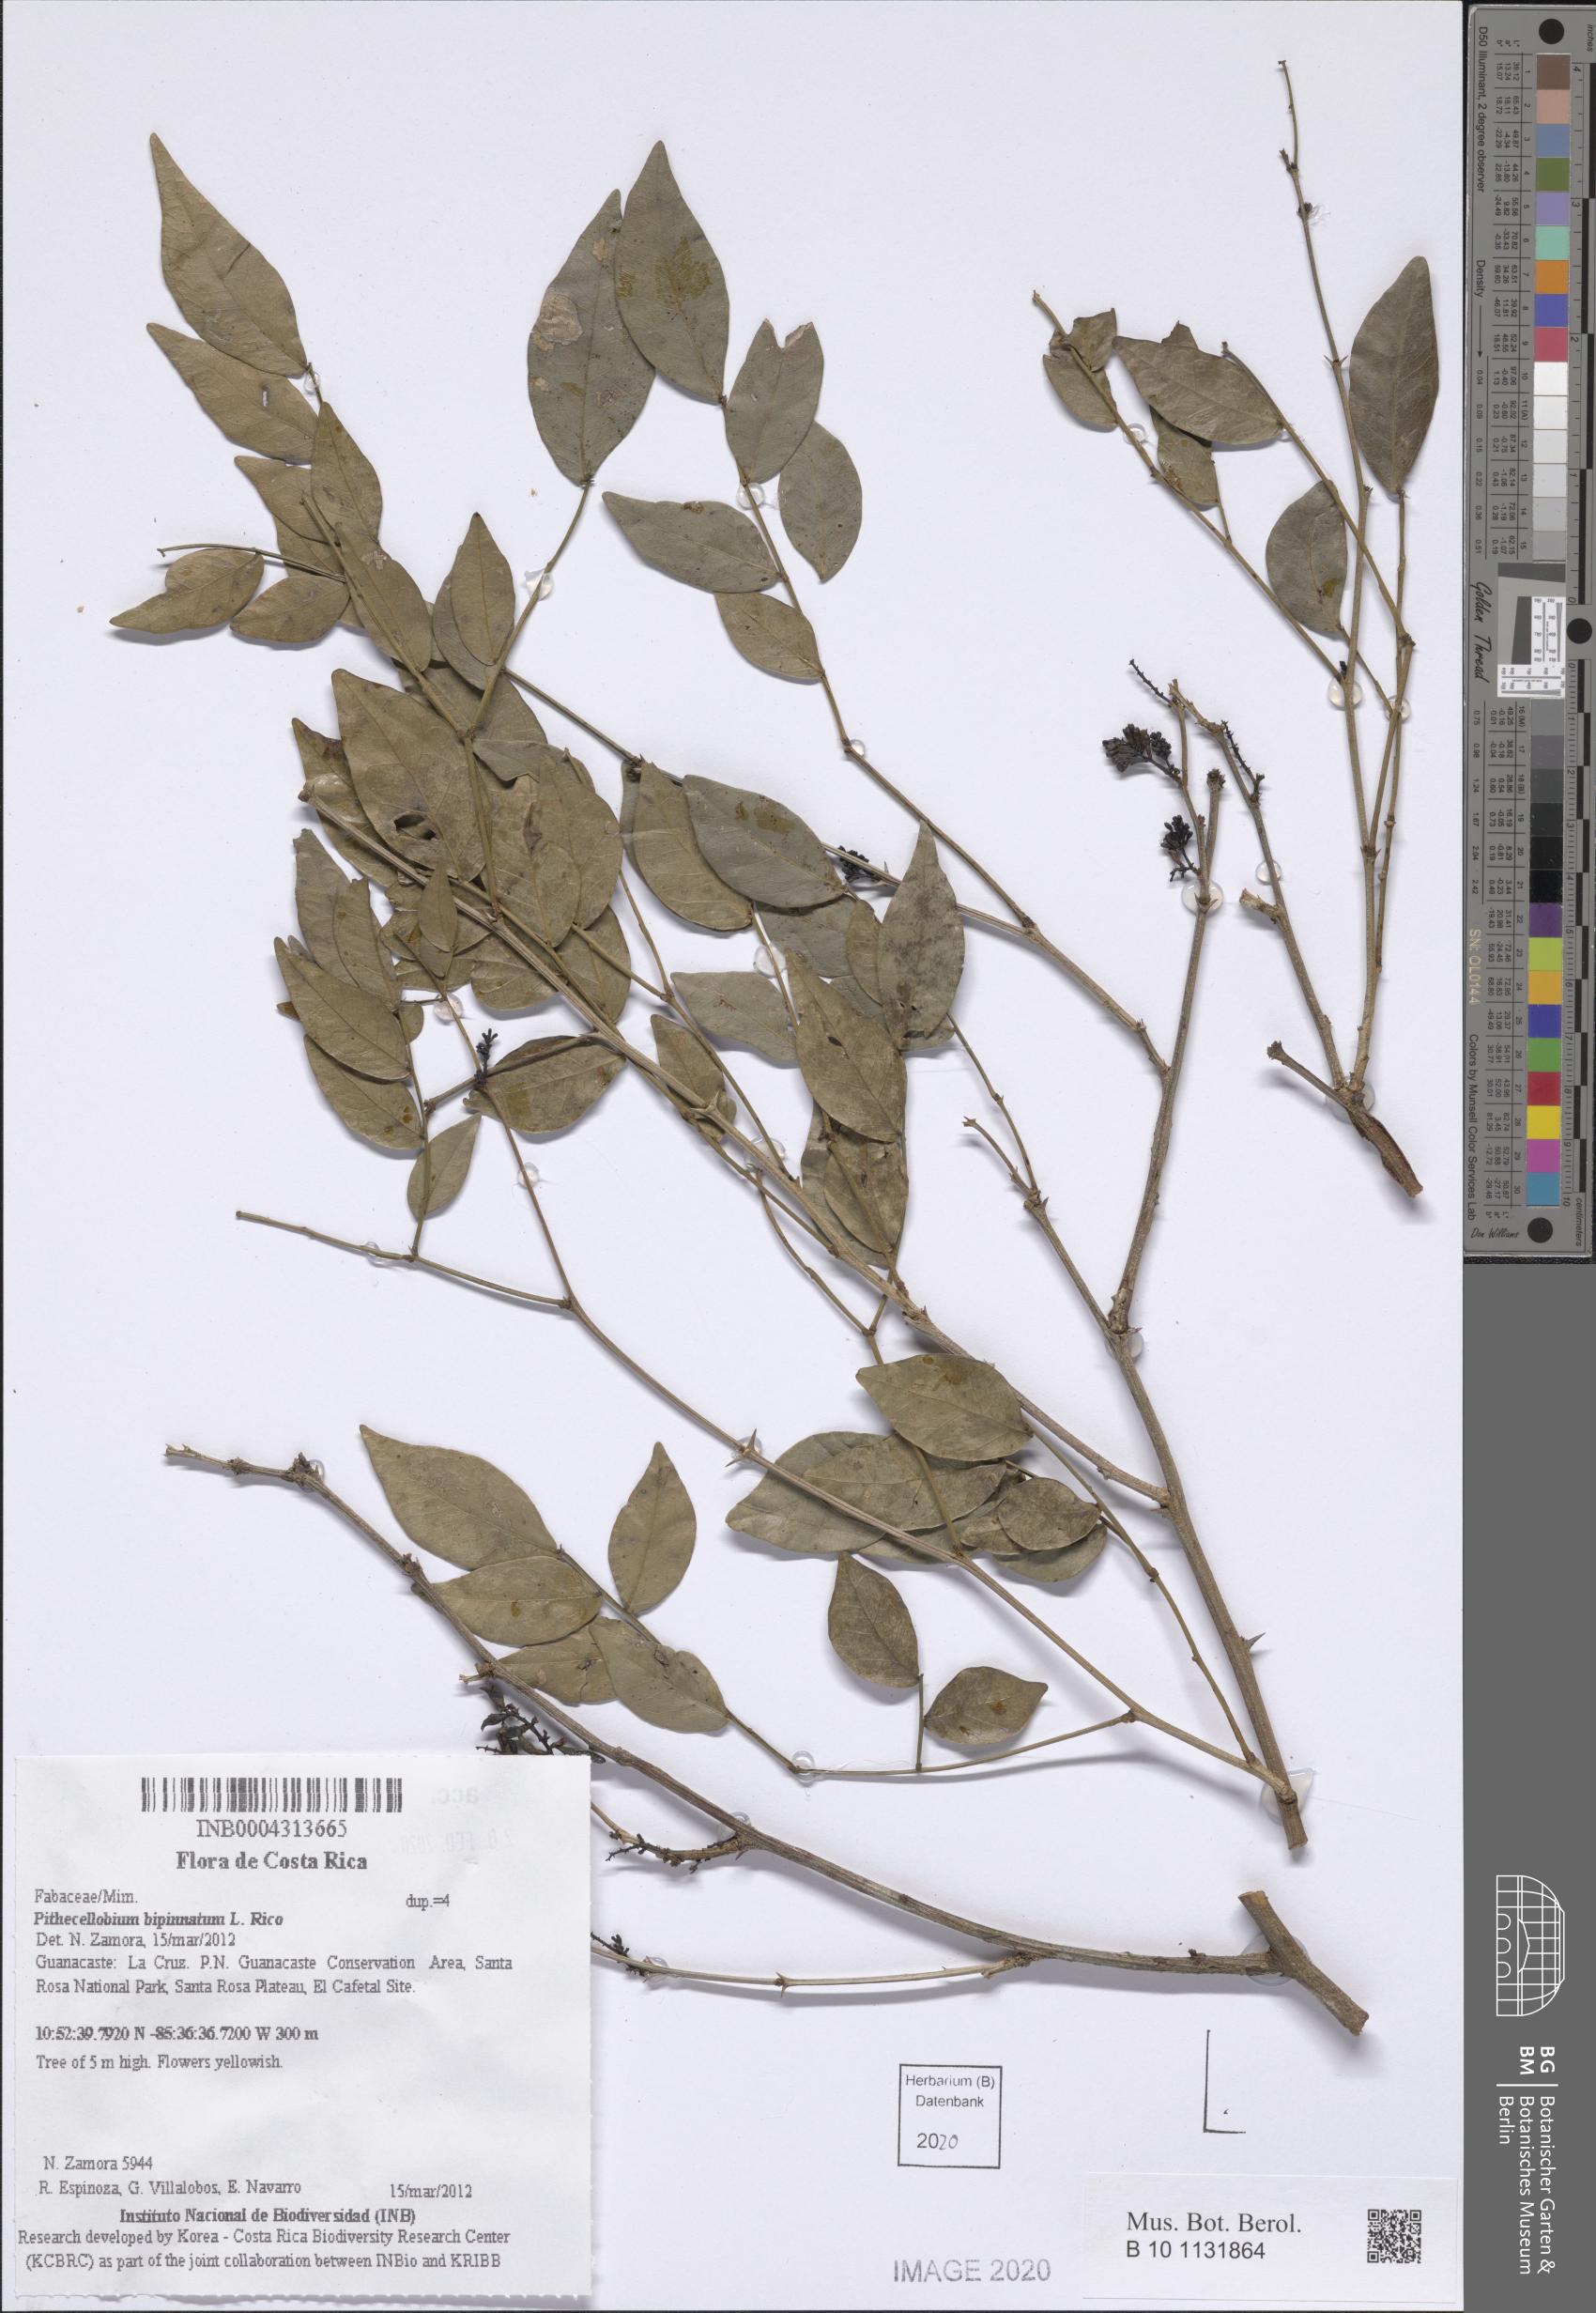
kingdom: Plantae
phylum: Tracheophyta
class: Magnoliopsida
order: Fabales
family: Fabaceae
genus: Pithecellobium
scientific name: Pithecellobium bipinnatum
